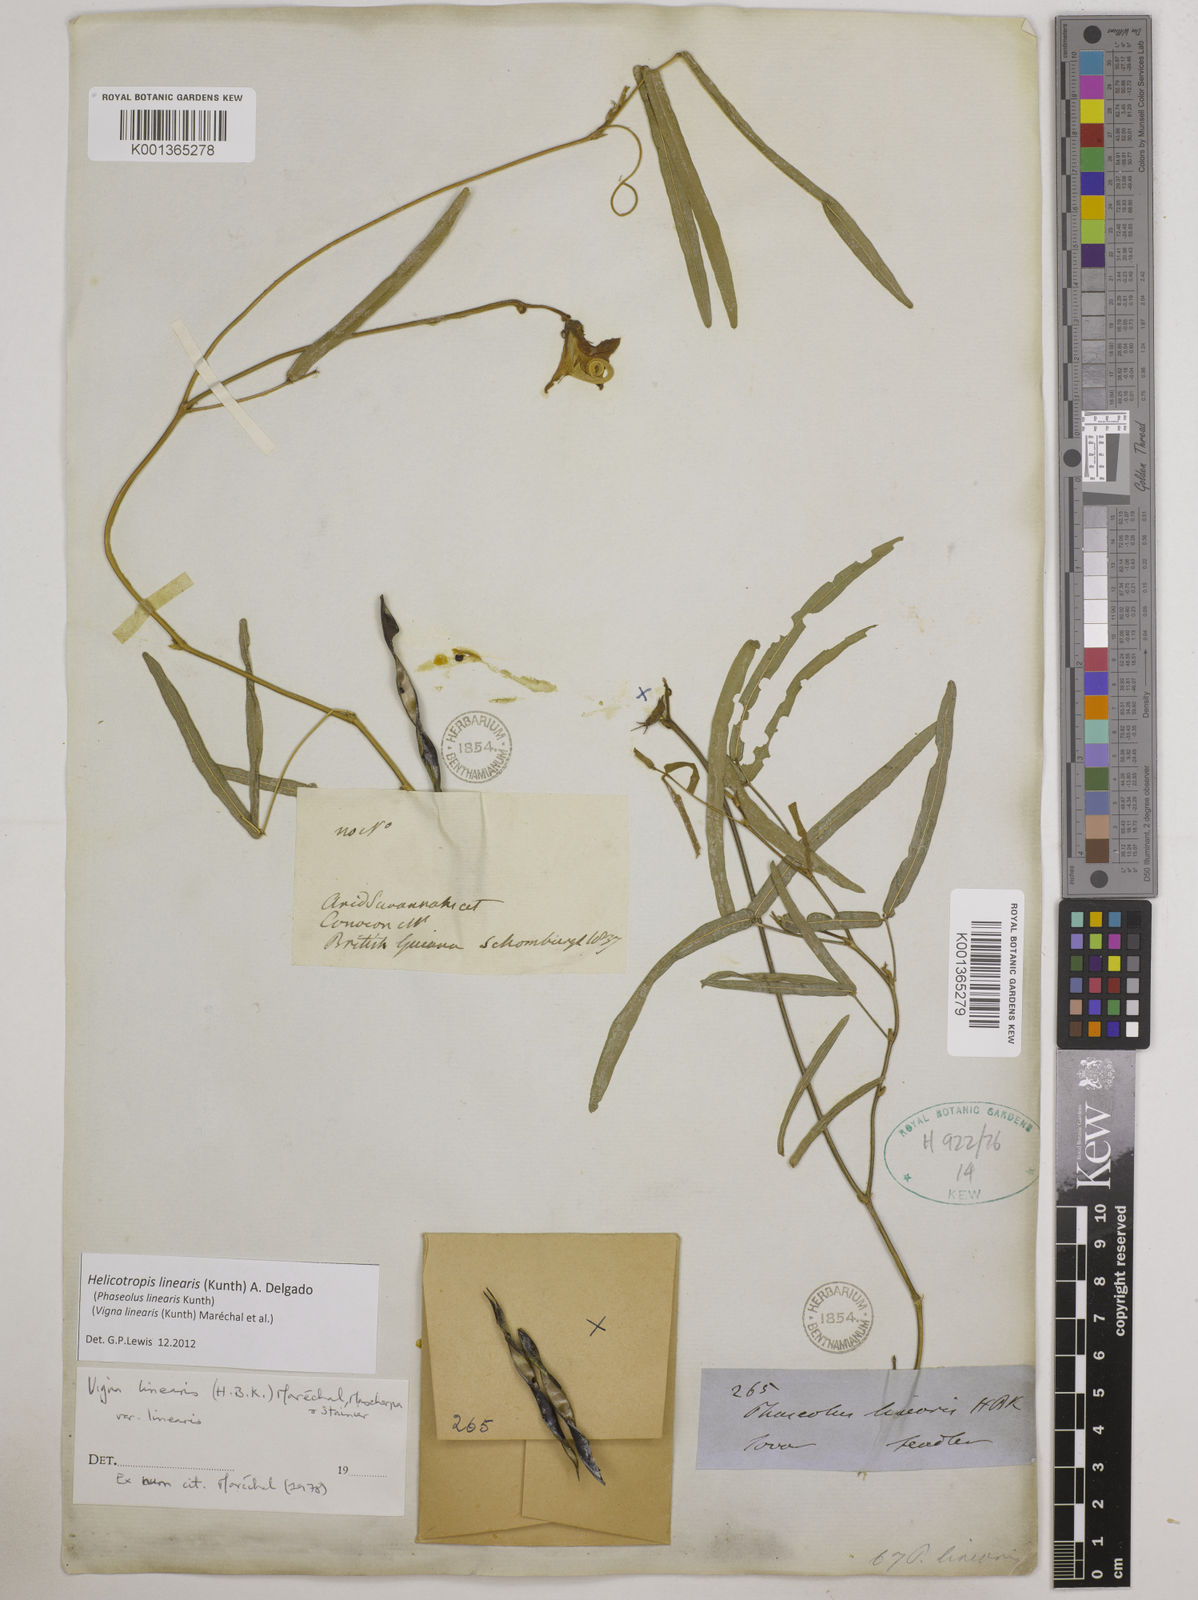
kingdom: Plantae
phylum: Tracheophyta
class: Magnoliopsida
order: Fabales
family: Fabaceae
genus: Helicotropis
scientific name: Helicotropis linearis
